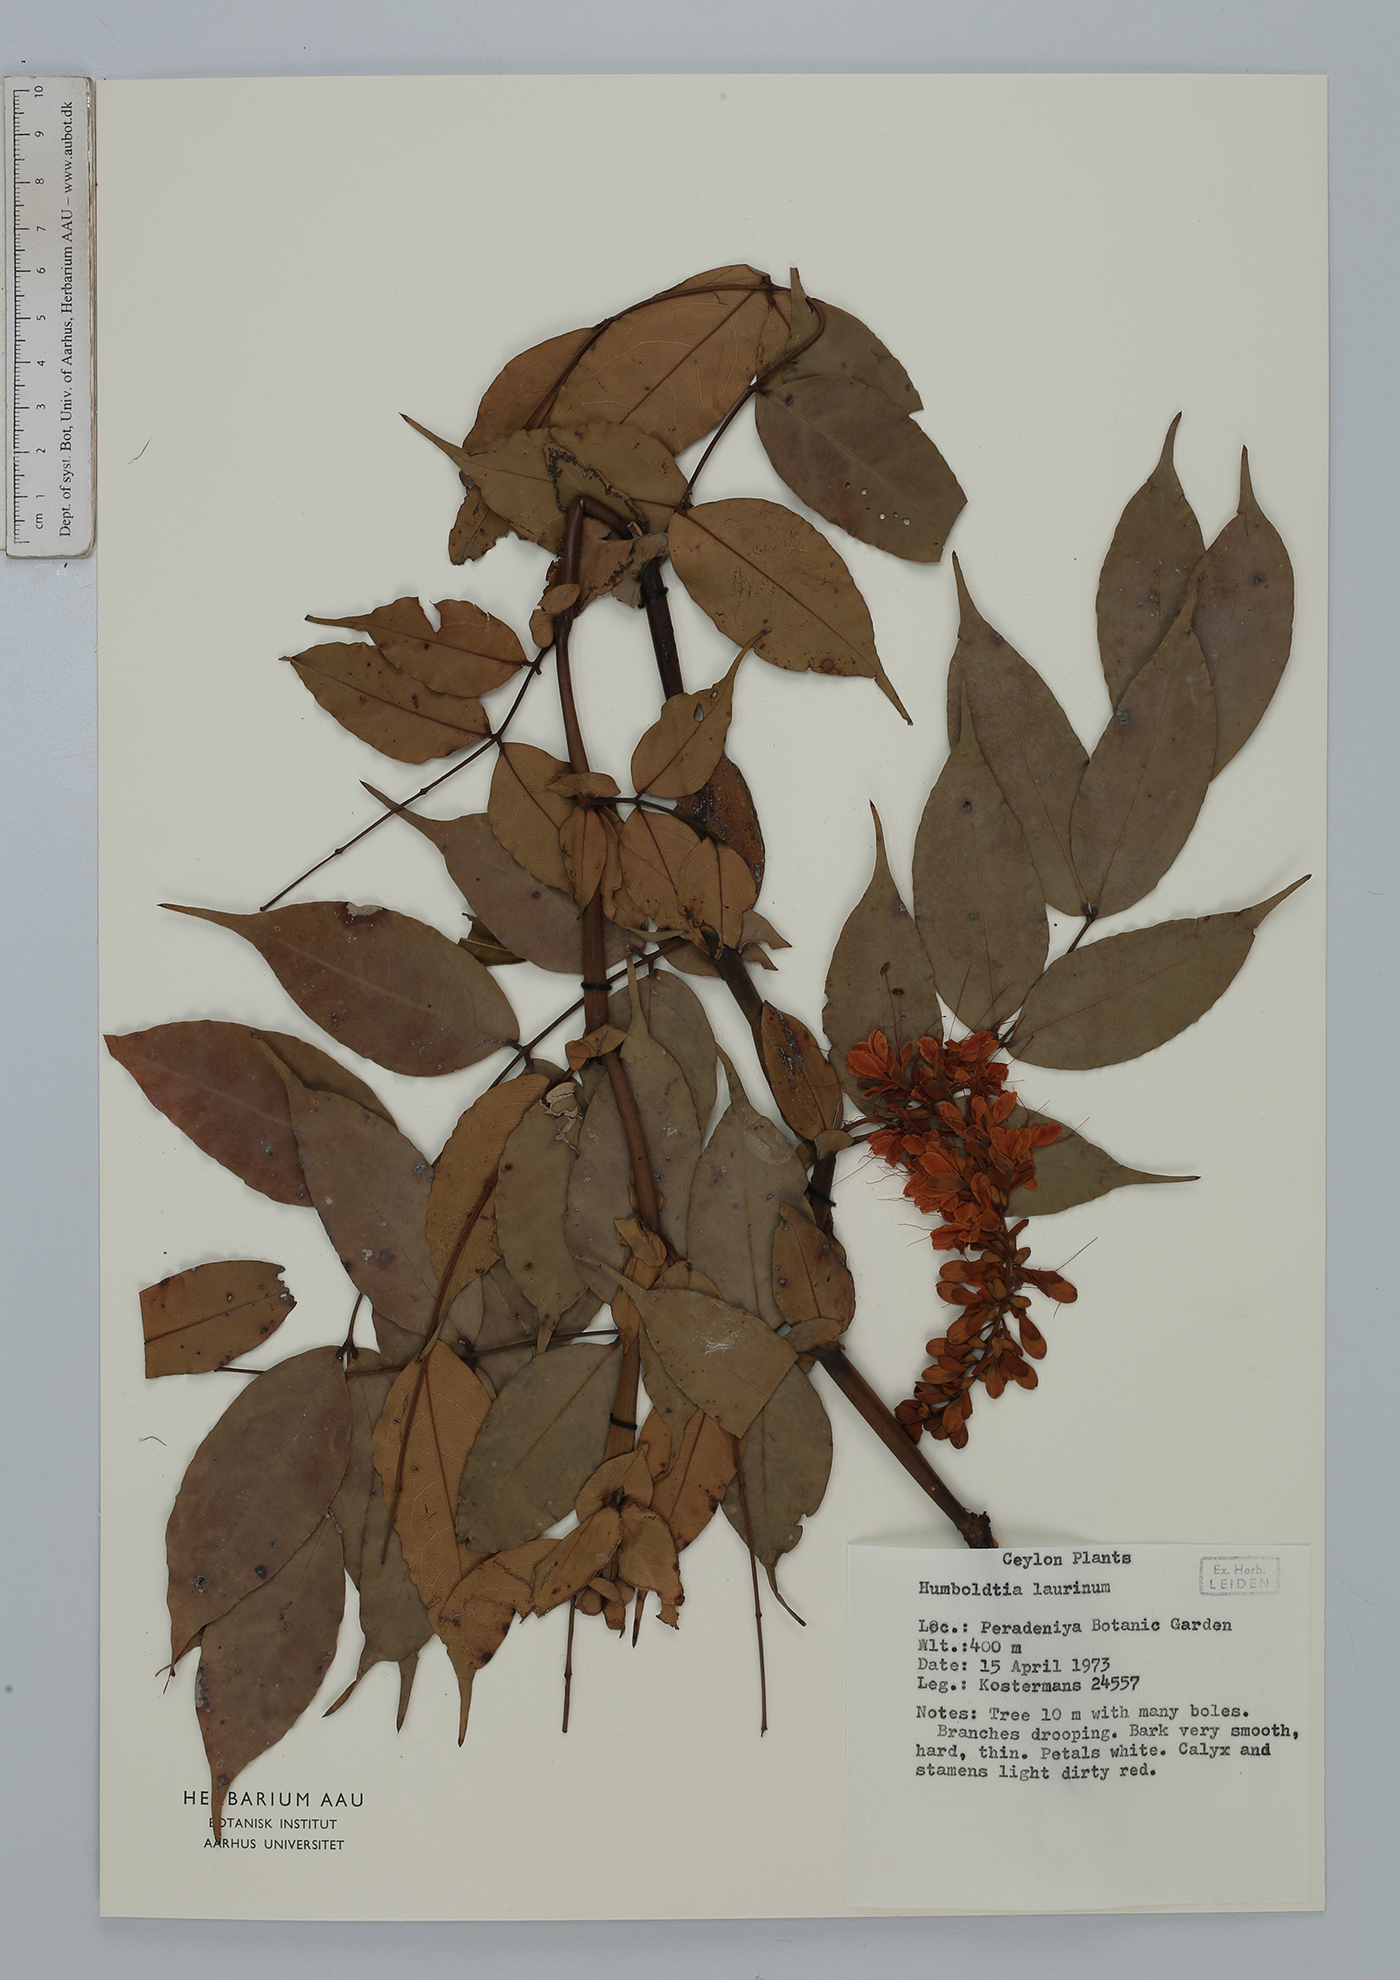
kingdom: Plantae
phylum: Tracheophyta
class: Magnoliopsida
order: Fabales
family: Fabaceae
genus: Humboldtia
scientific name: Humboldtia laurifolia
